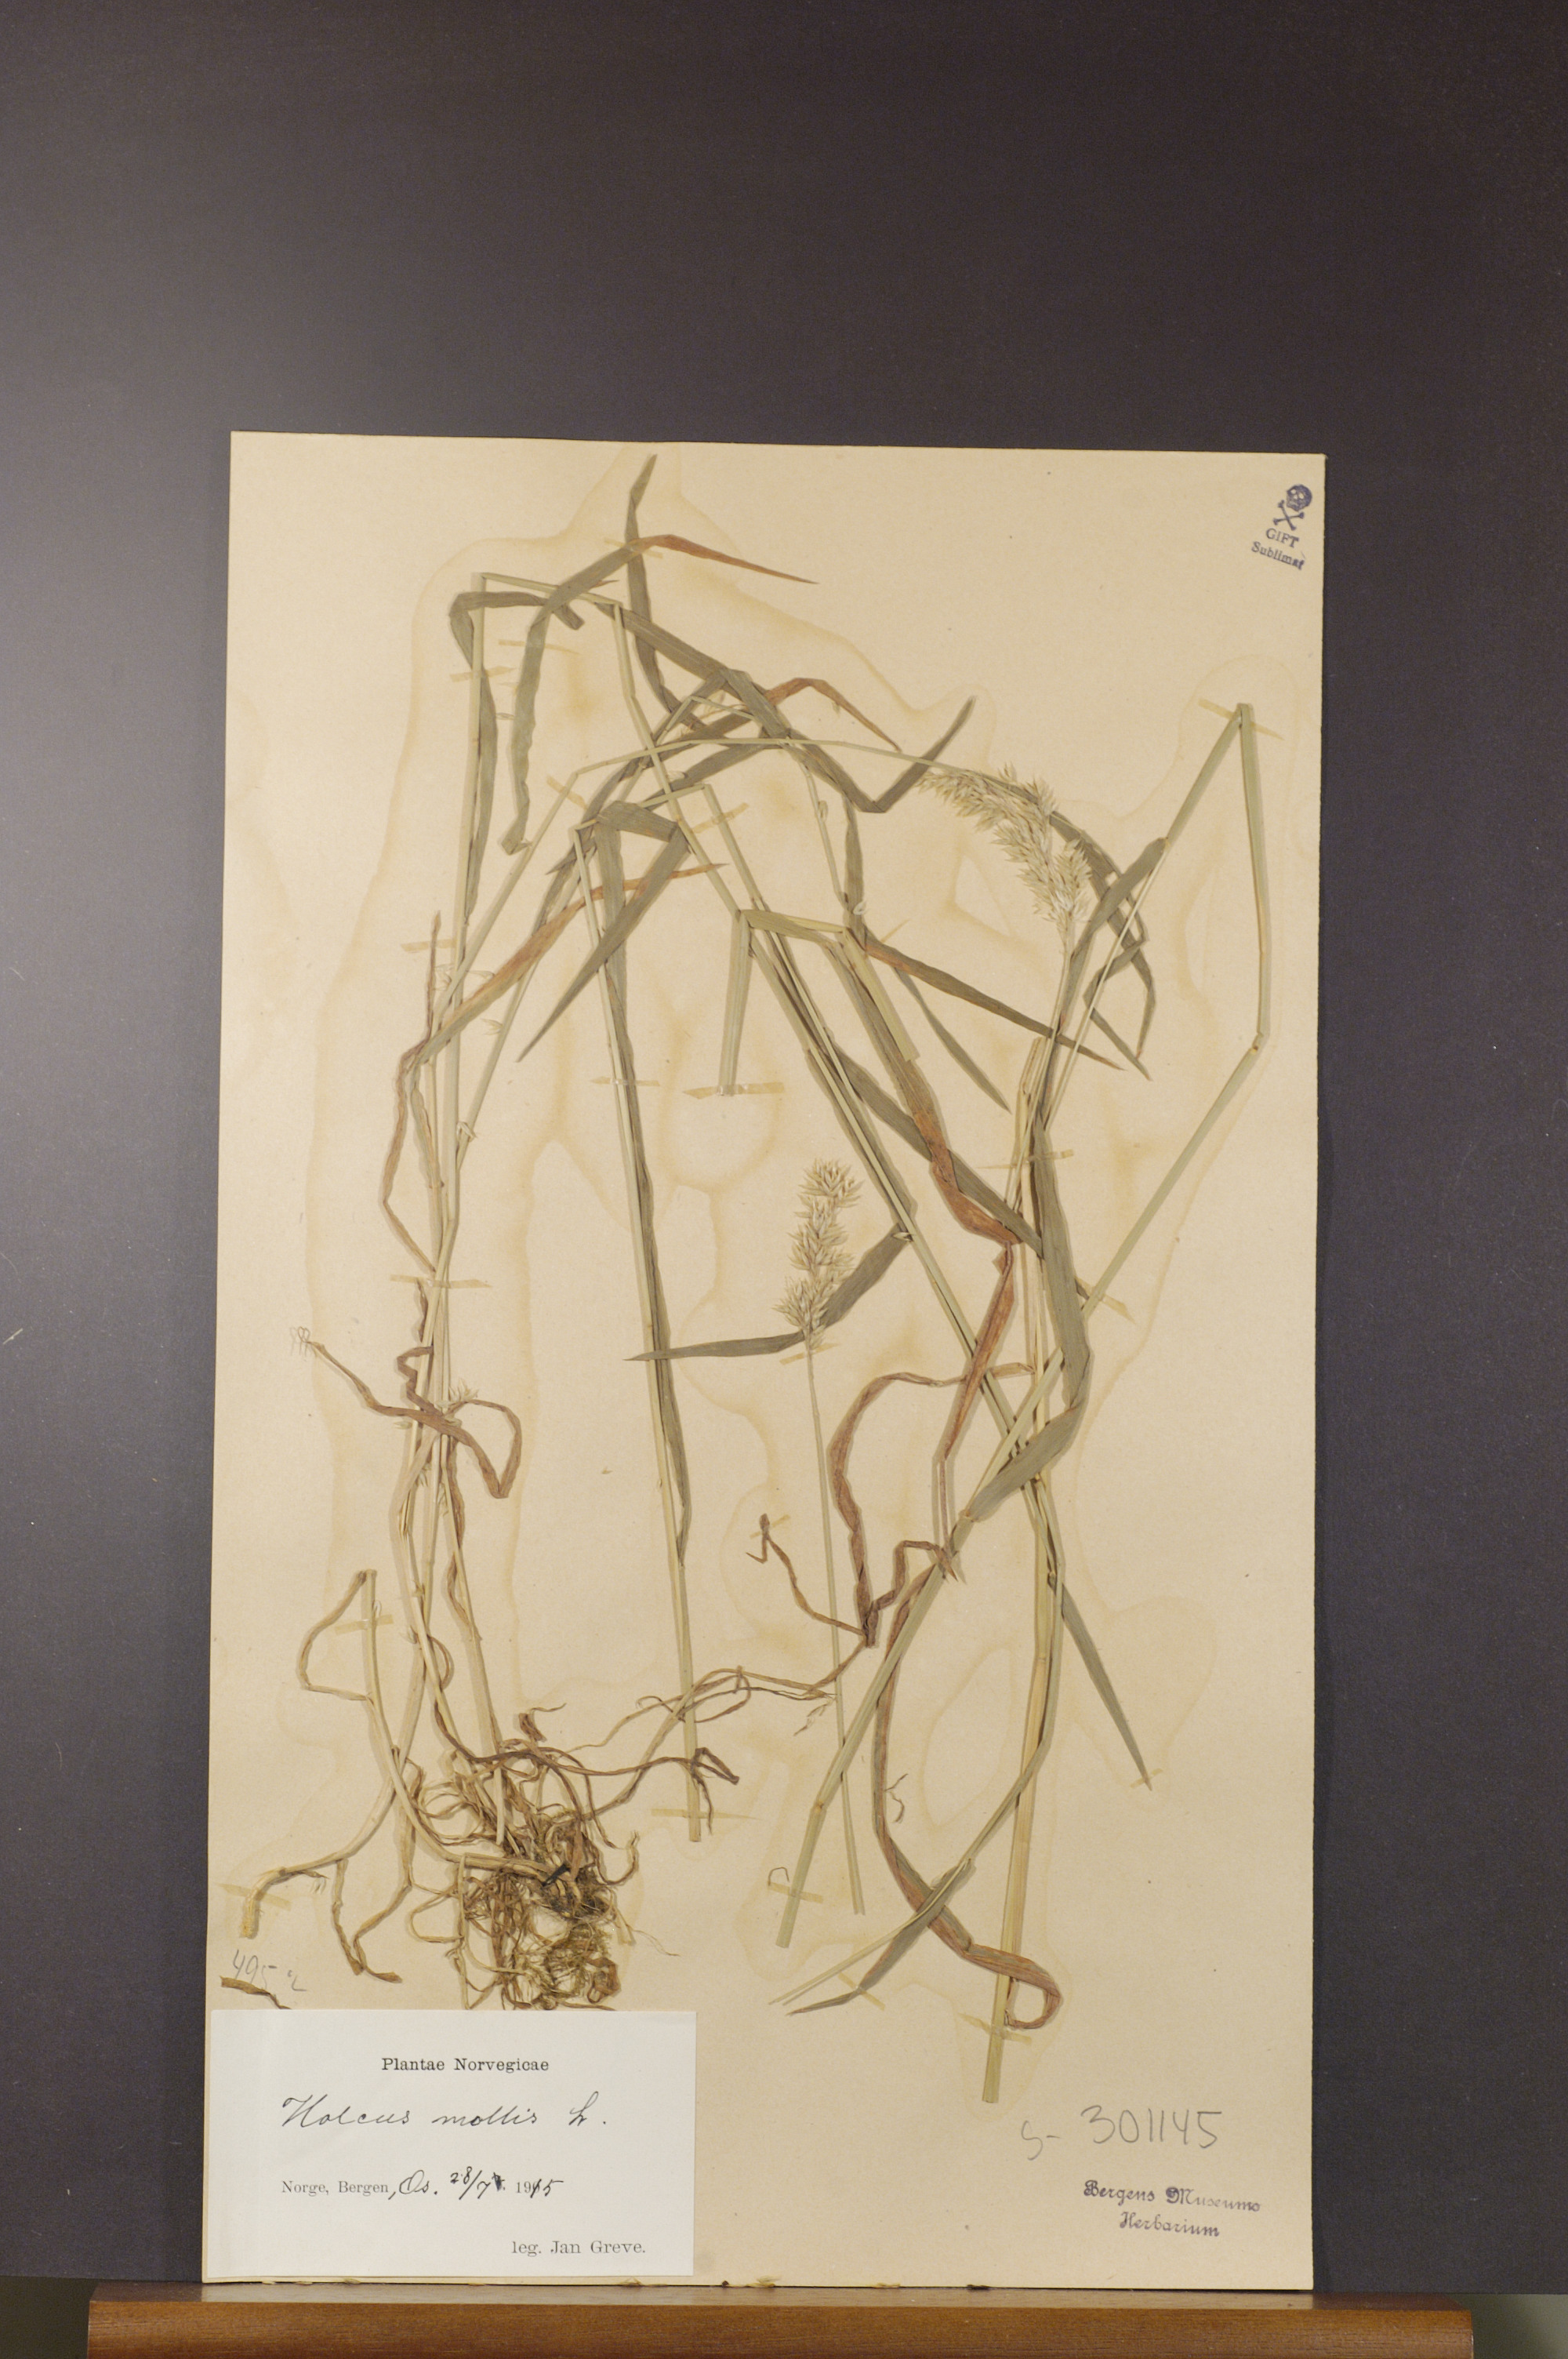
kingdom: Plantae
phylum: Tracheophyta
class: Liliopsida
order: Poales
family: Poaceae
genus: Holcus
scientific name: Holcus mollis
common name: Creeping velvetgrass
